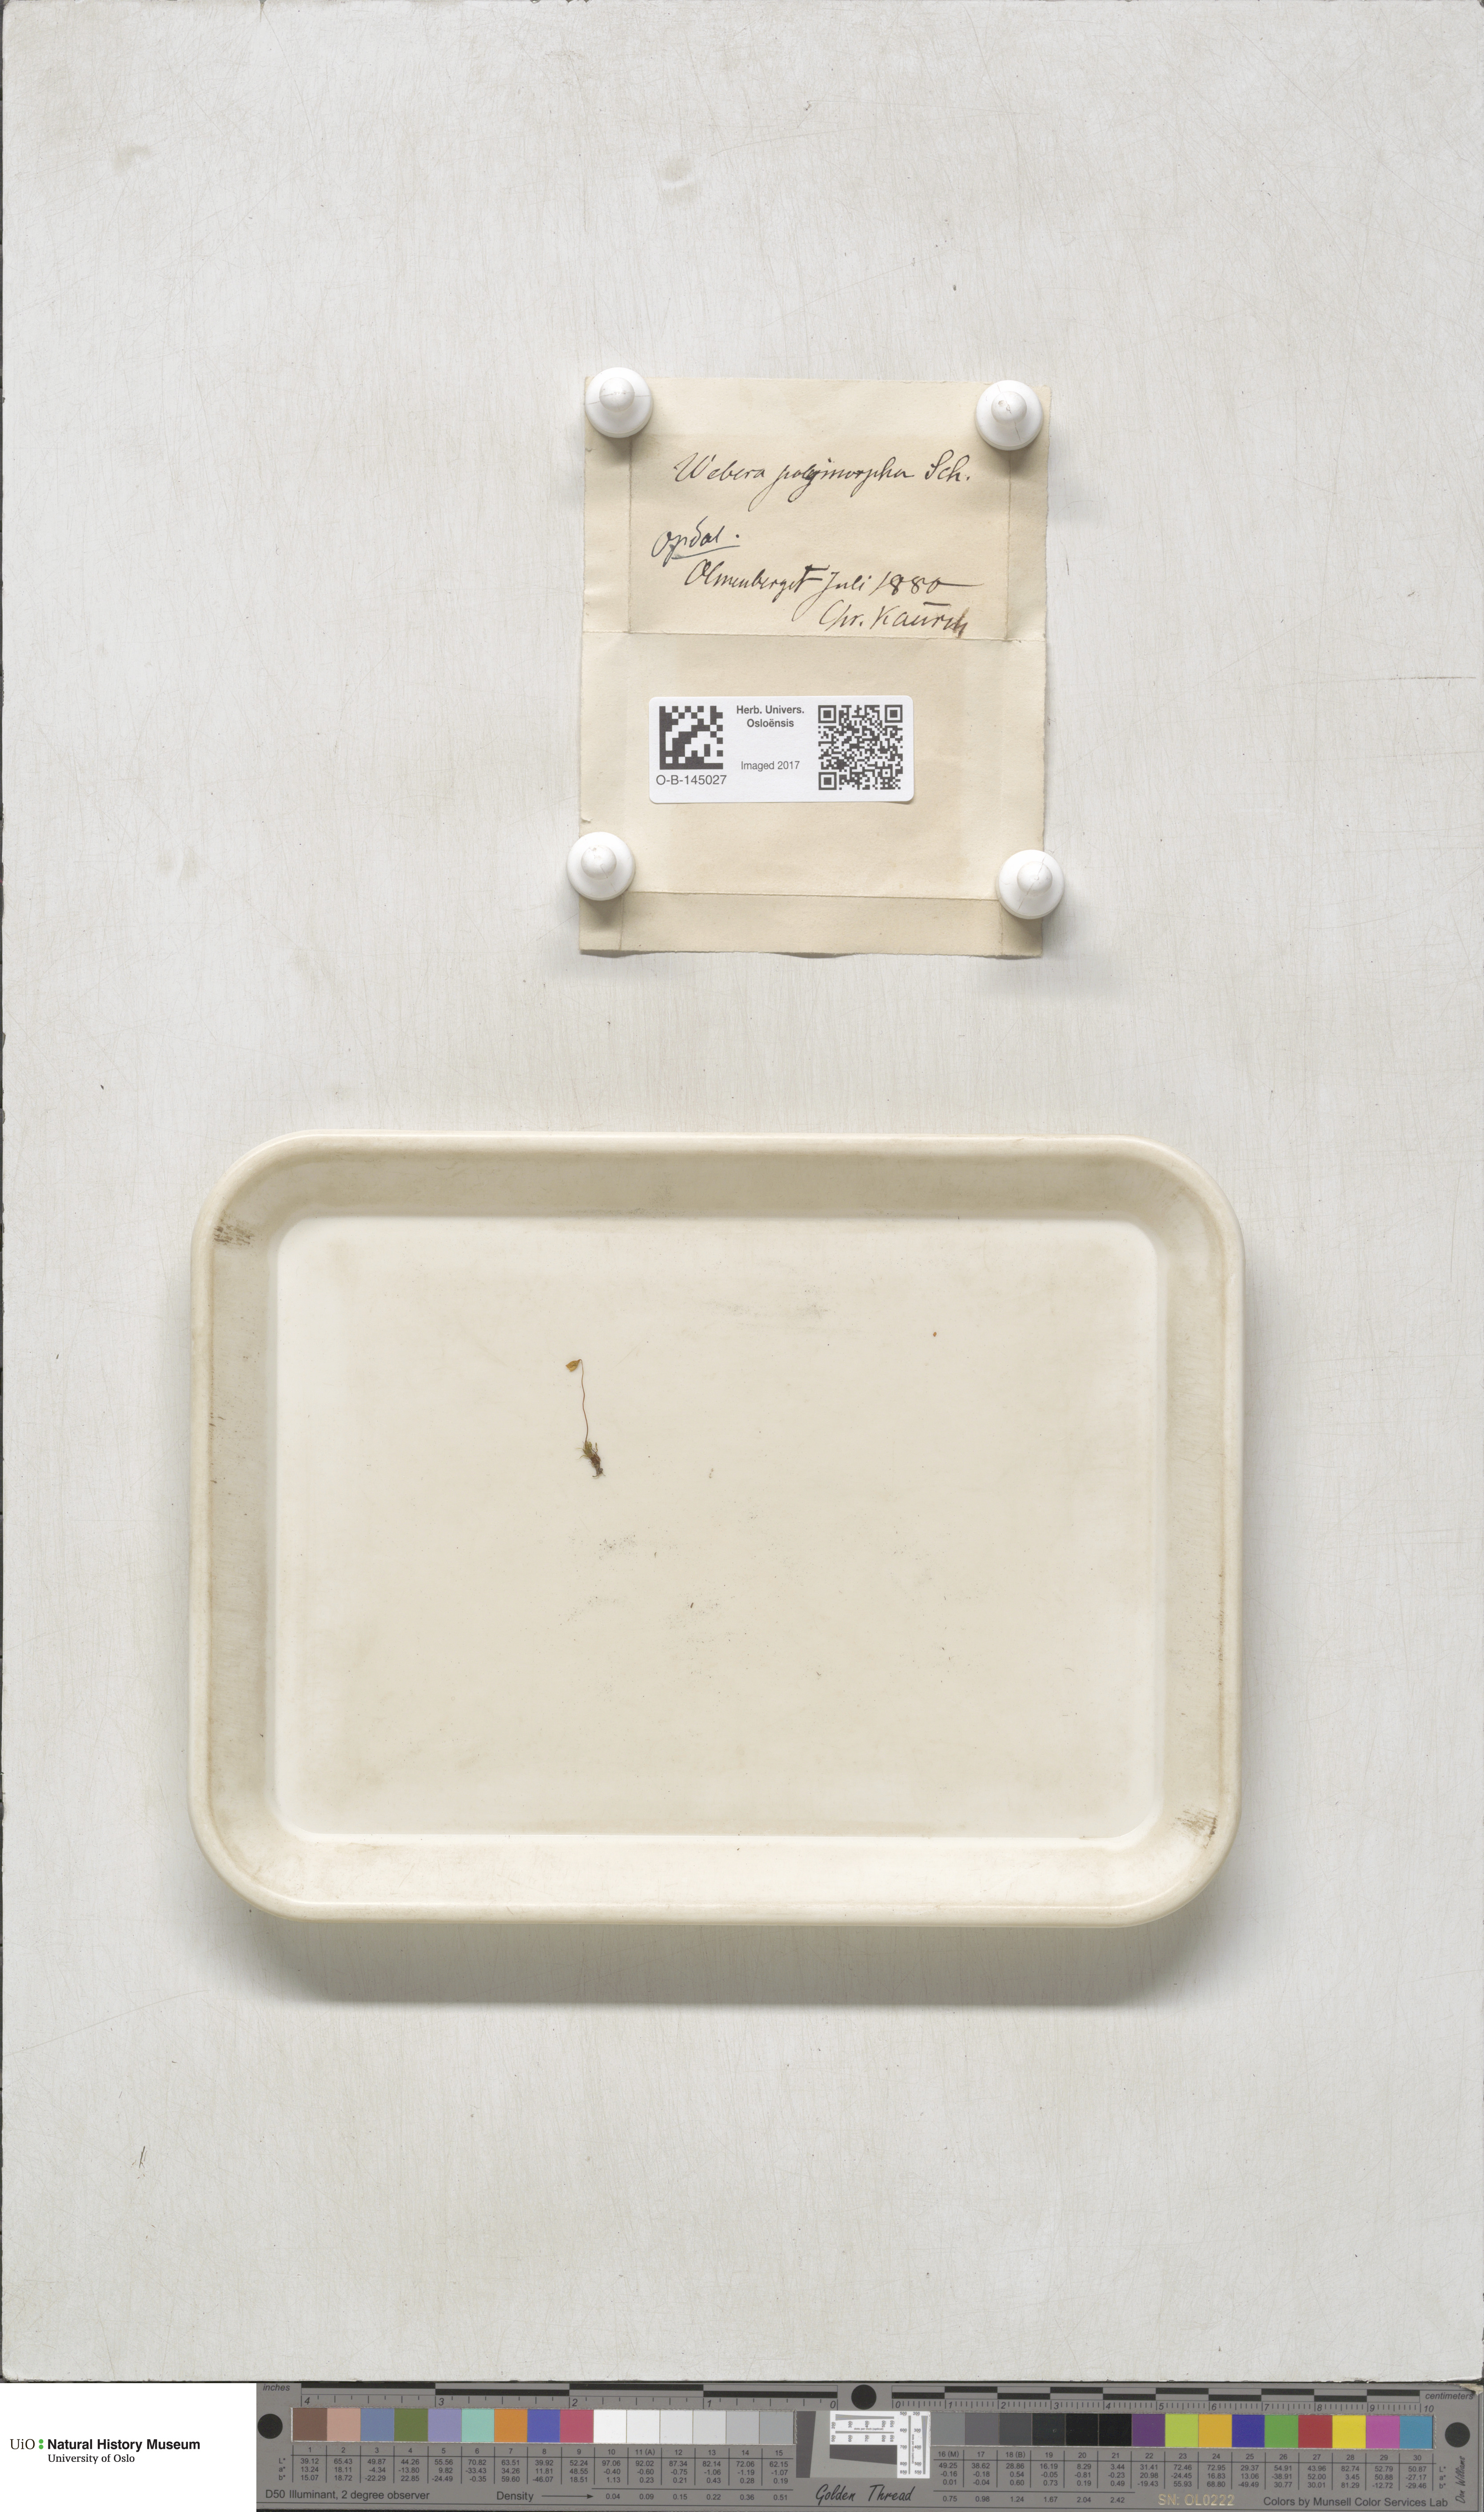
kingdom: Plantae
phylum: Bryophyta
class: Bryopsida
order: Bryales
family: Mniaceae
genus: Pohlia
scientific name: Pohlia elongata
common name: Long-fruited thread-moss
